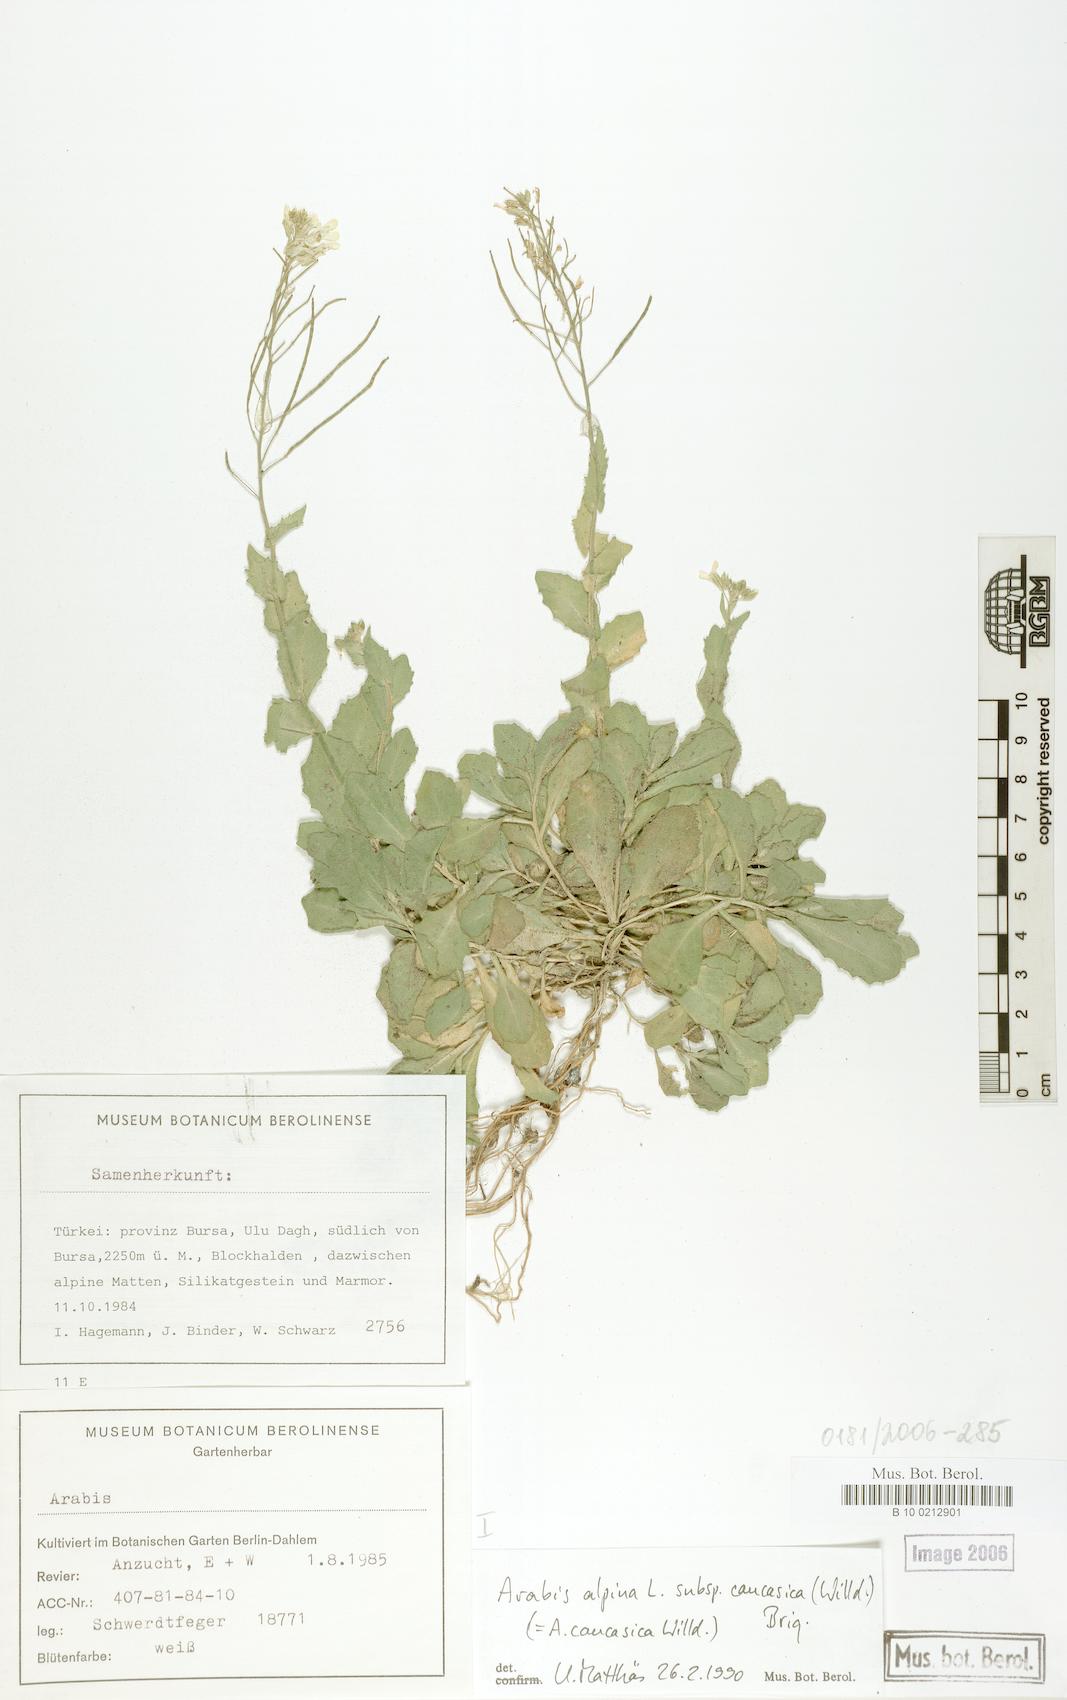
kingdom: Plantae
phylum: Tracheophyta
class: Magnoliopsida
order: Brassicales
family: Brassicaceae
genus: Arabis
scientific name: Arabis caucasica
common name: Gray rockcress
